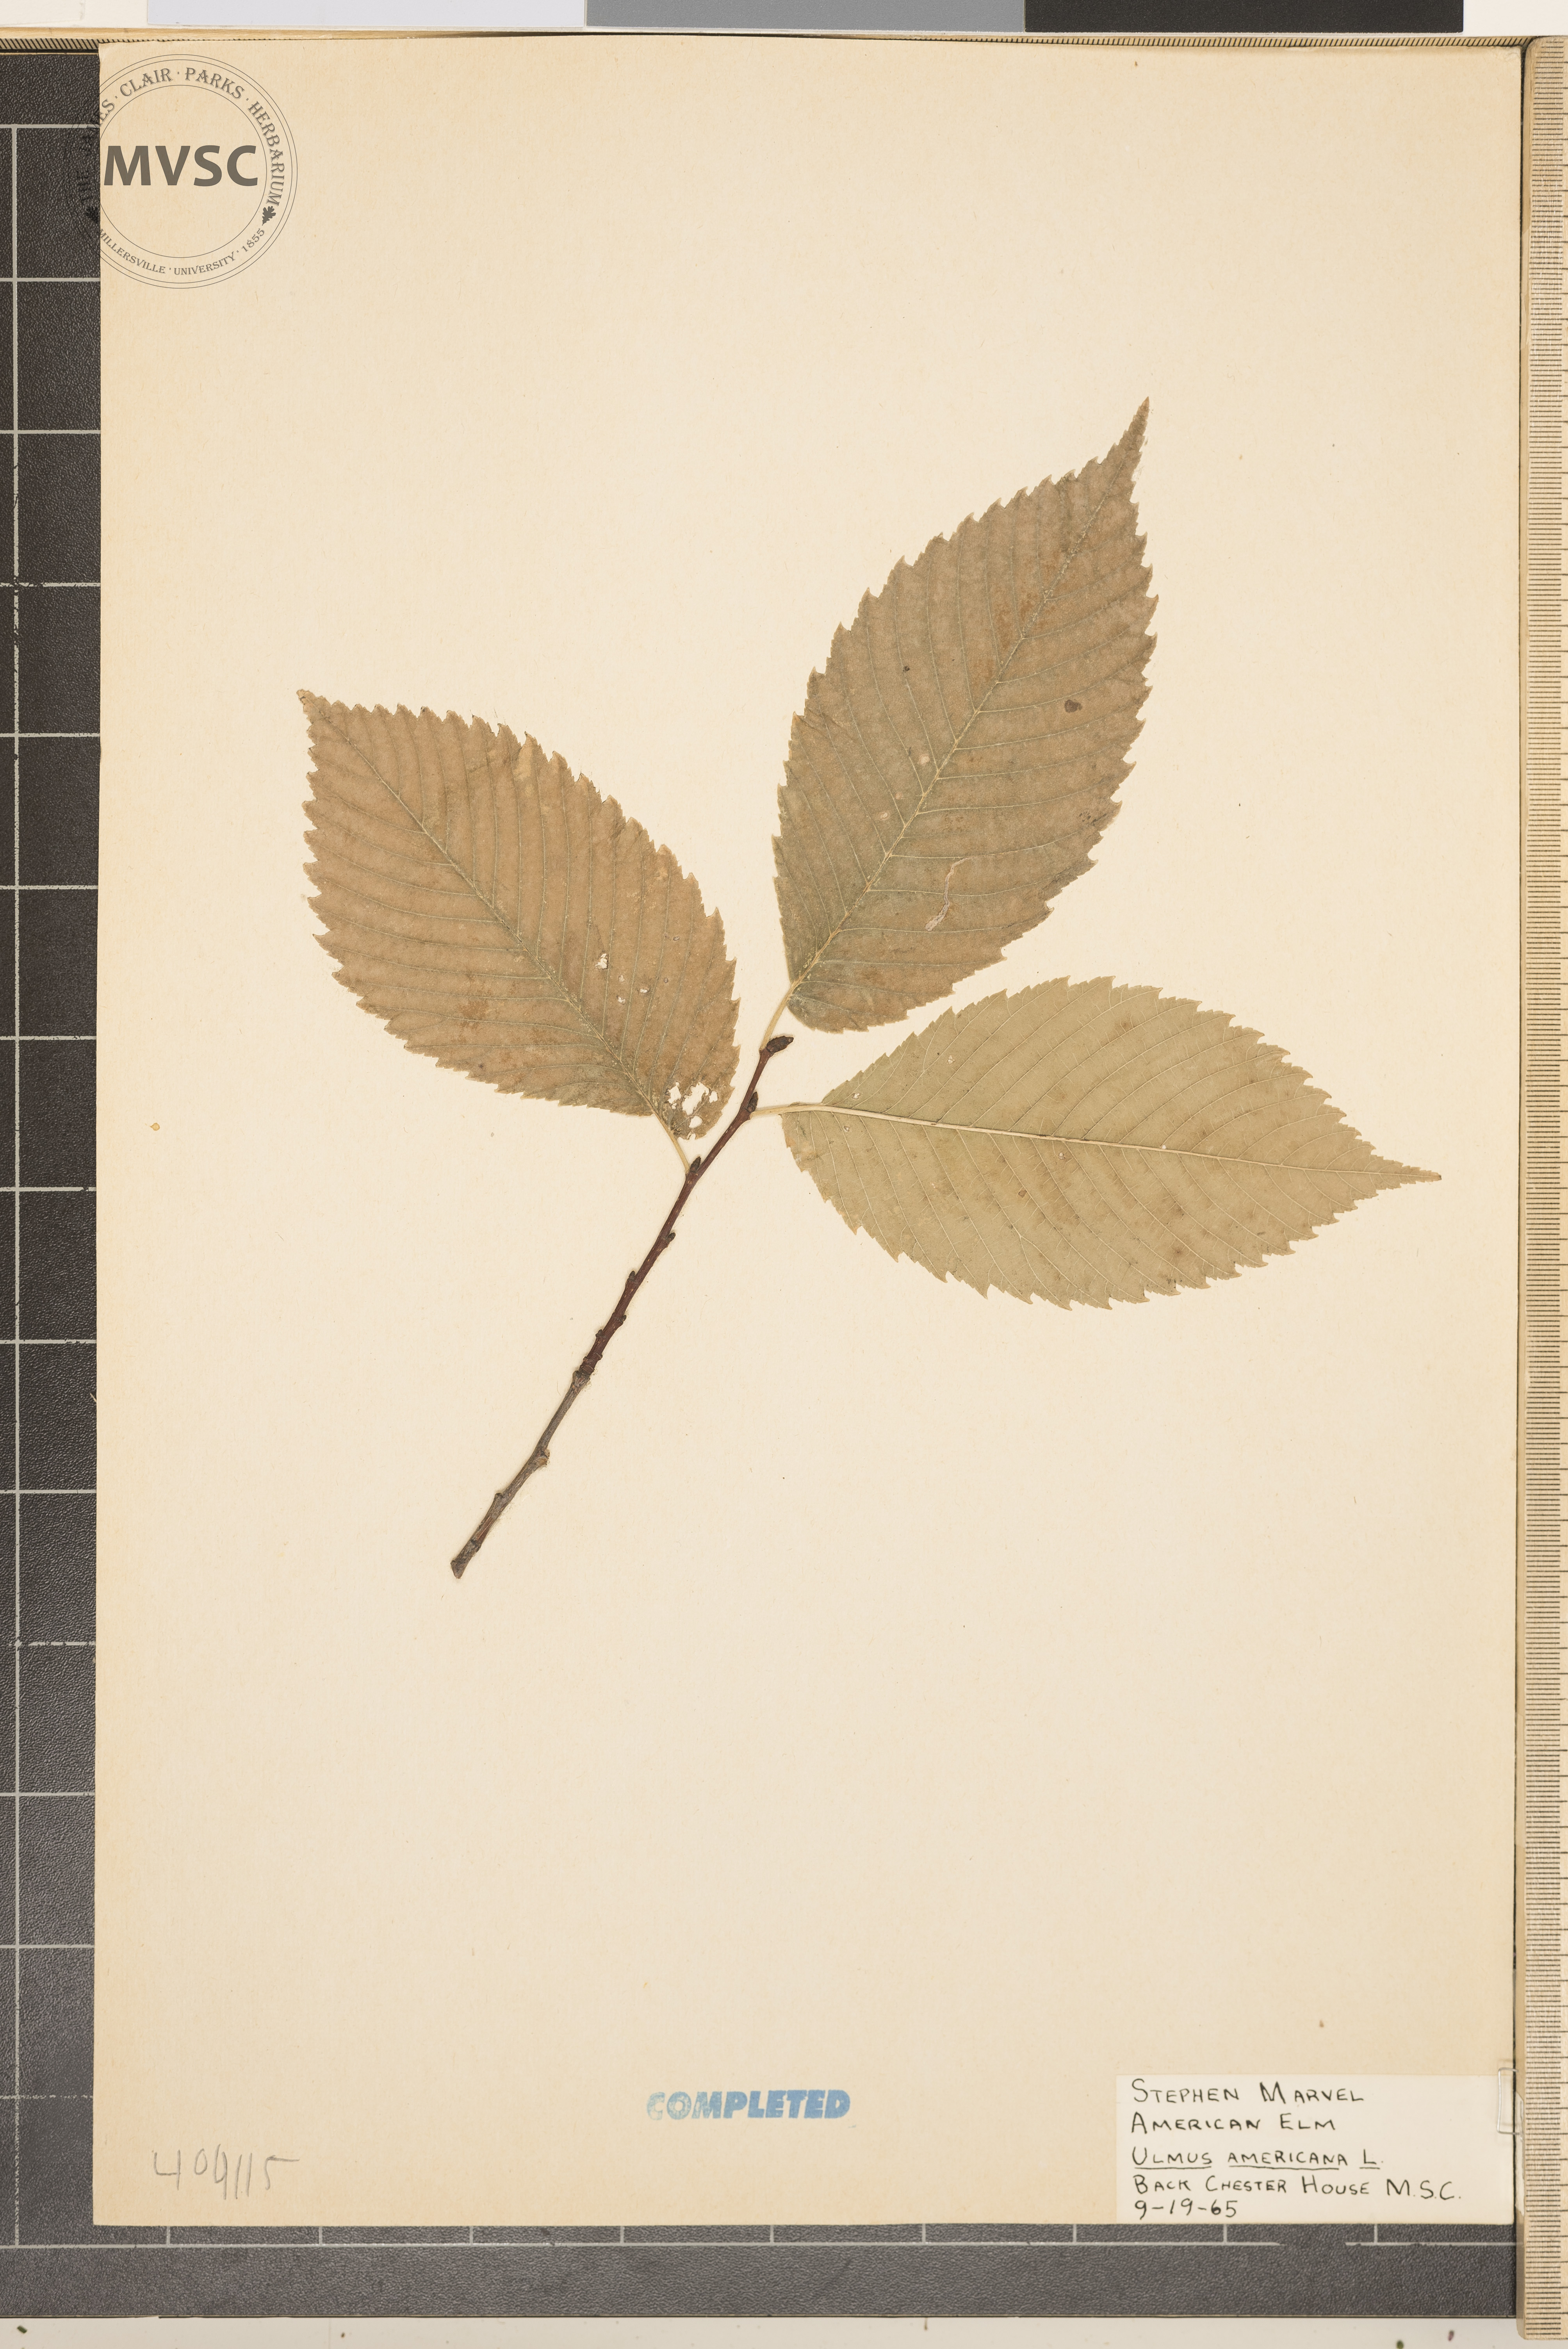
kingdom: Plantae
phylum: Tracheophyta
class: Magnoliopsida
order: Rosales
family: Ulmaceae
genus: Ulmus
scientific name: Ulmus americana
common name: American elm
